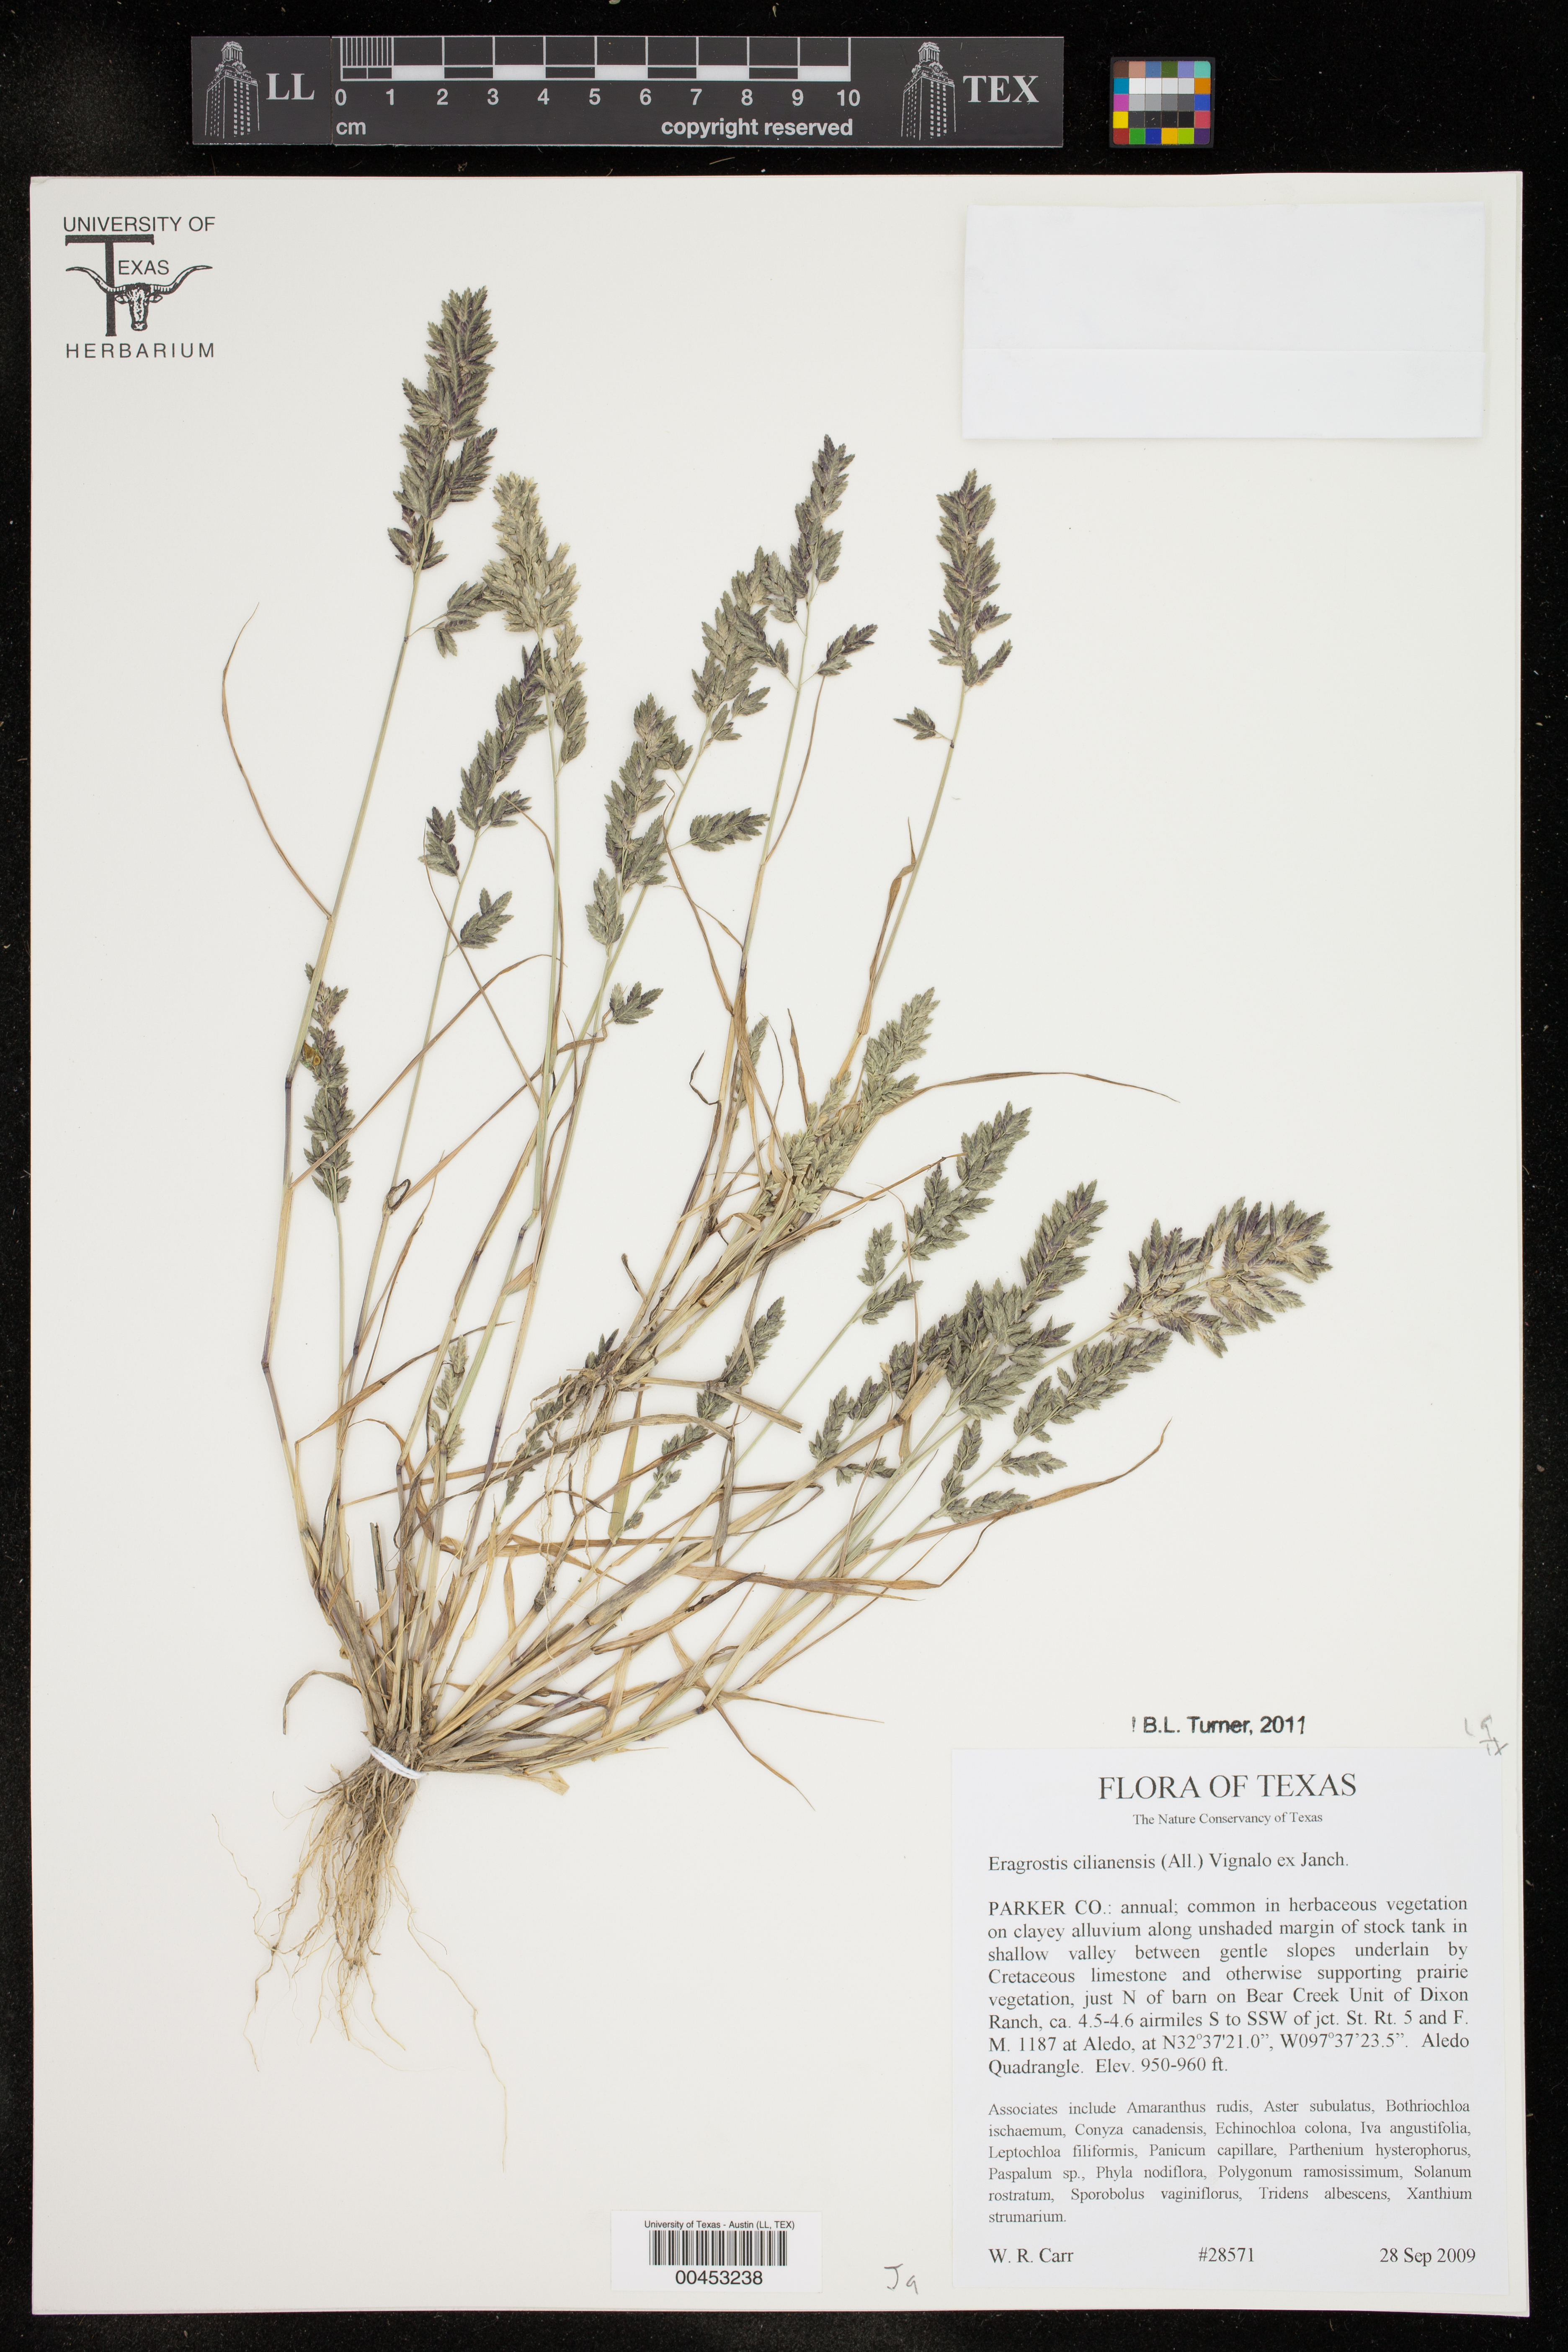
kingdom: Plantae
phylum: Tracheophyta
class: Liliopsida
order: Poales
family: Poaceae
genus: Eragrostis
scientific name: Eragrostis cilianensis
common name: Stinkgrass
